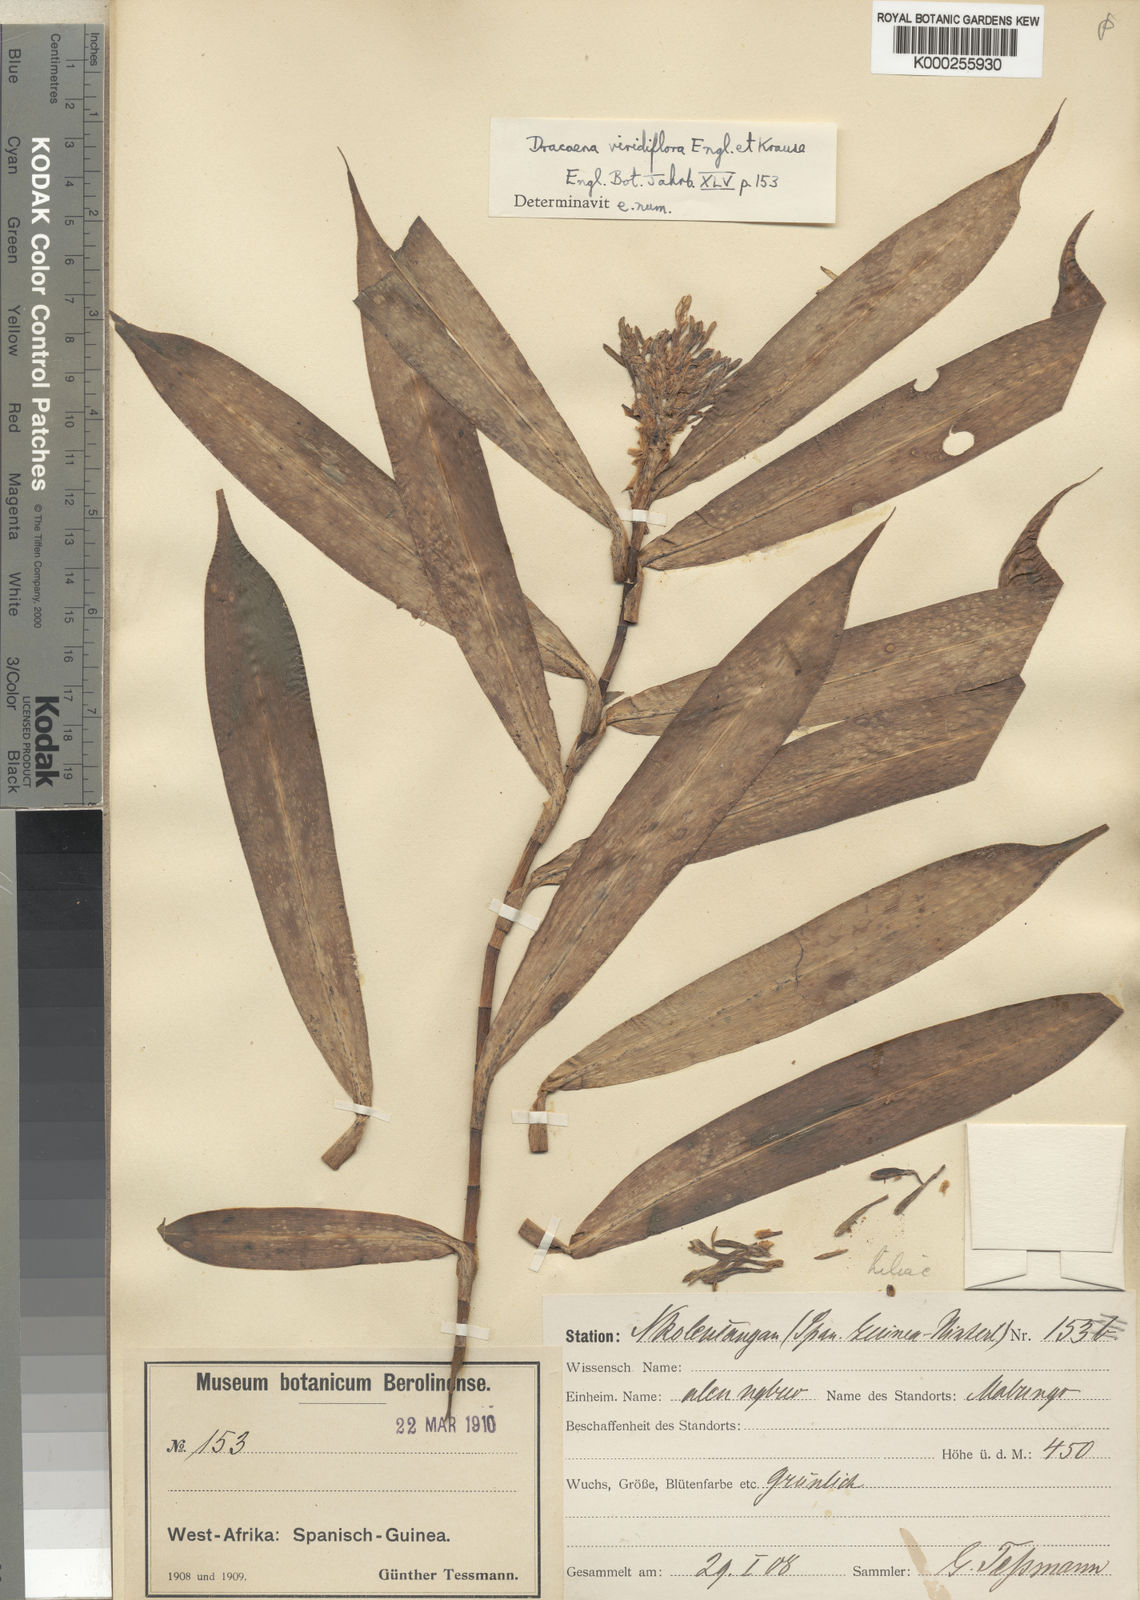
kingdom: Plantae
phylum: Tracheophyta
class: Liliopsida
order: Asparagales
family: Asparagaceae
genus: Dracaena
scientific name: Dracaena viridiflora
